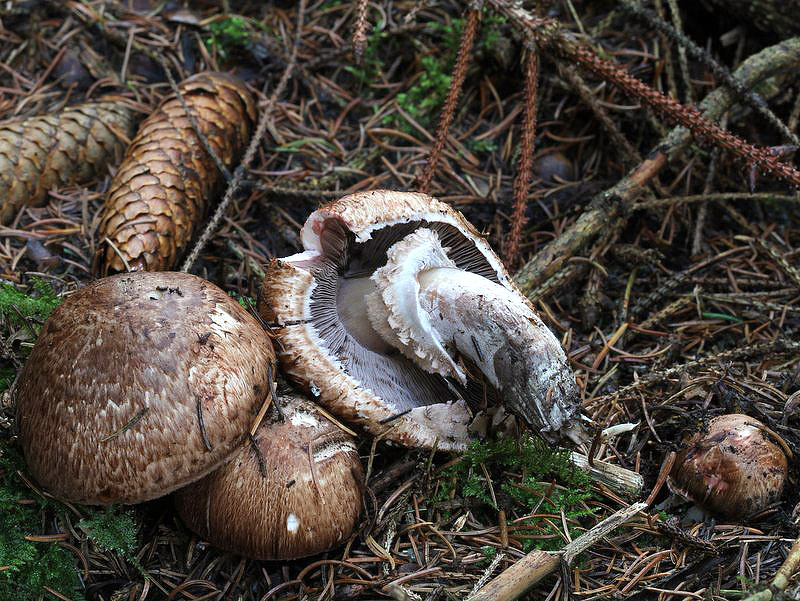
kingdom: Fungi
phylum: Basidiomycota
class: Agaricomycetes
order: Agaricales
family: Agaricaceae
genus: Agaricus
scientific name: Agaricus langei
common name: stor blod-champignon
